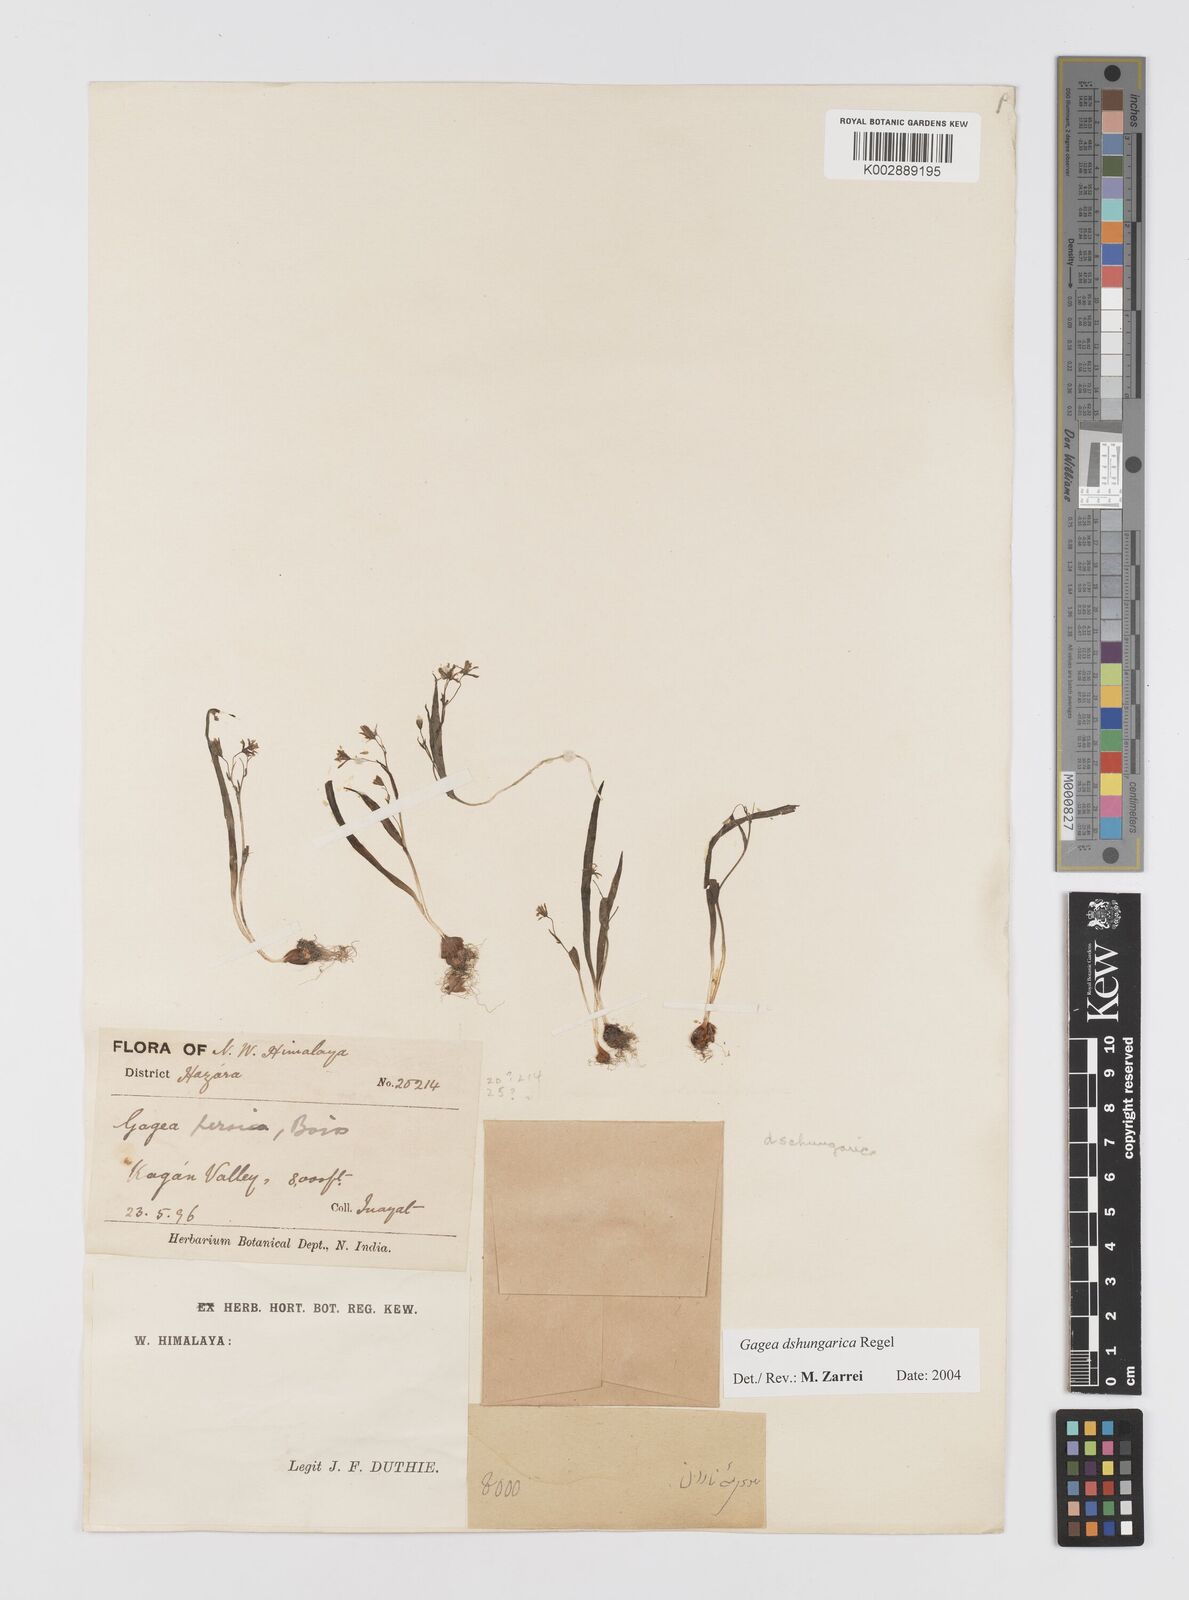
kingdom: Plantae
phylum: Tracheophyta
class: Liliopsida
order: Liliales
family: Liliaceae
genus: Gagea
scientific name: Gagea dschungarica
